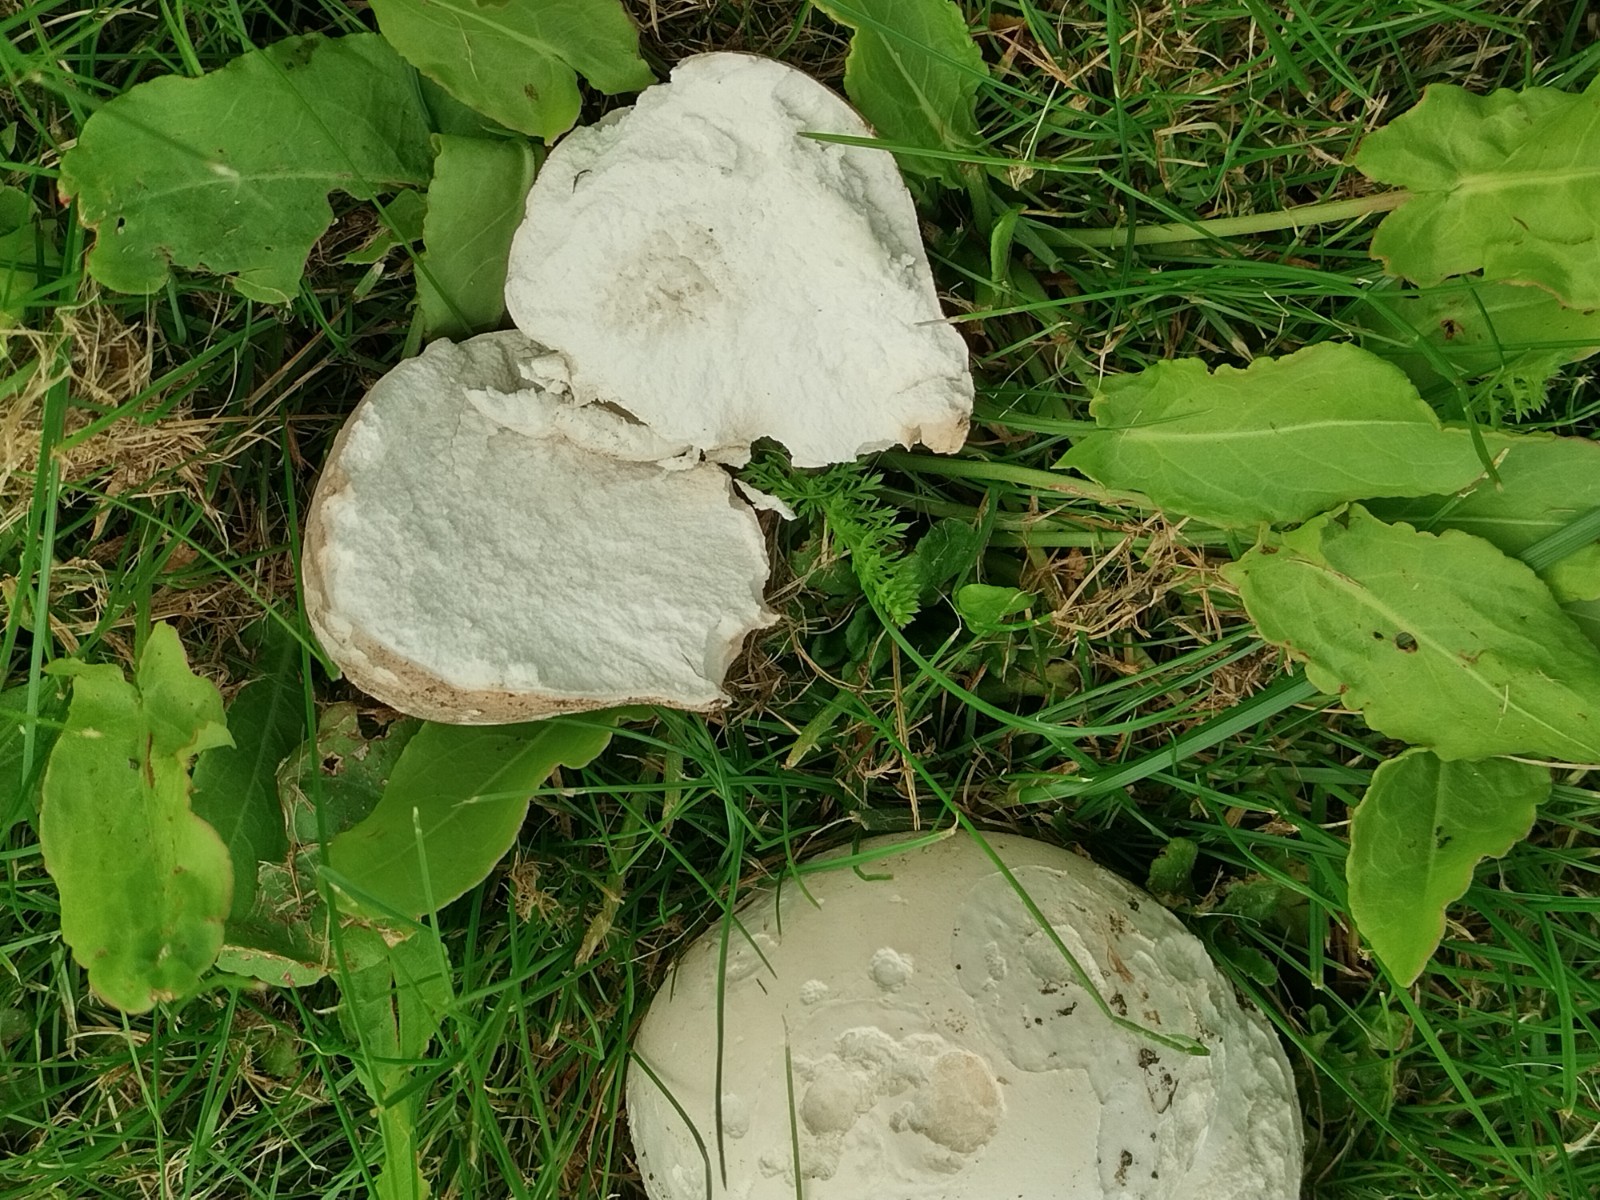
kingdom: Fungi
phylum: Basidiomycota
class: Agaricomycetes
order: Agaricales
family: Lycoperdaceae
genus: Calvatia
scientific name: Calvatia gigantea
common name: kæmpestøvbold
